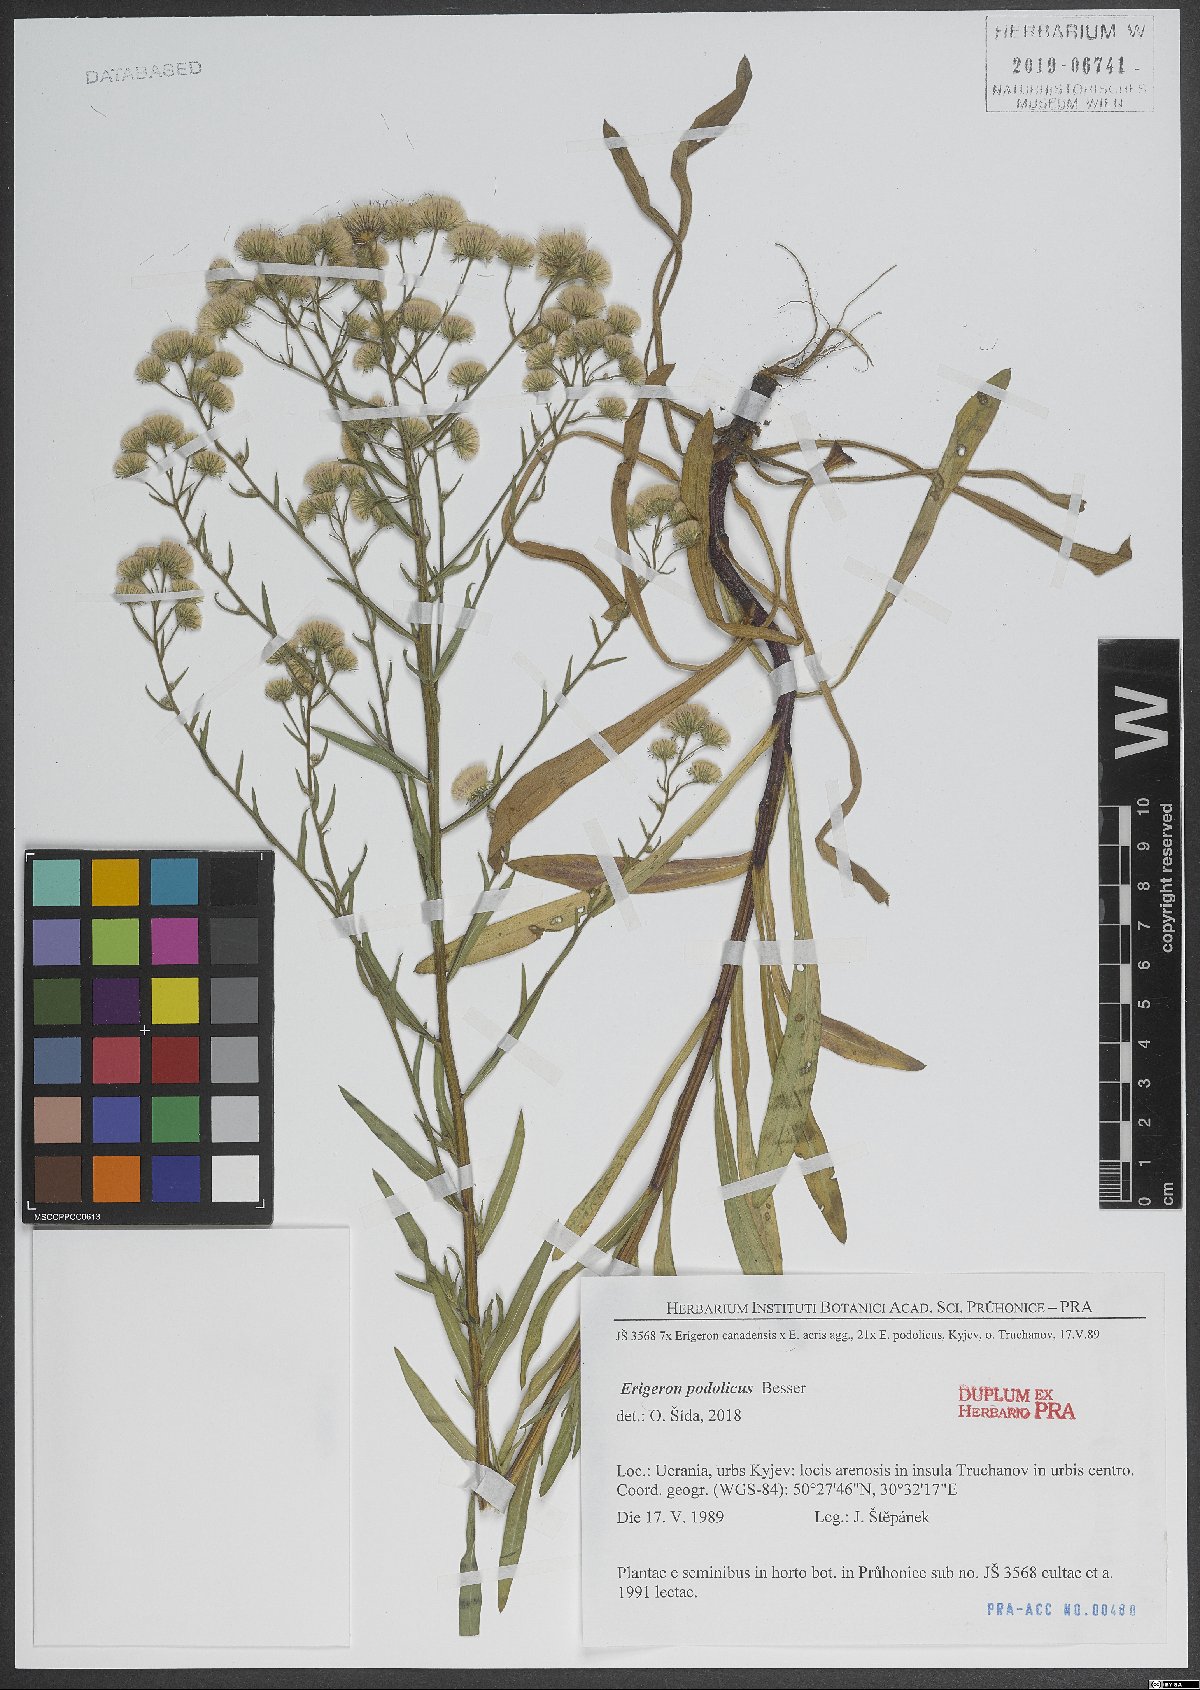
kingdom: Plantae
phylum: Tracheophyta
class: Magnoliopsida
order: Asterales
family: Asteraceae
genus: Erigeron
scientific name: Erigeron podolicus
